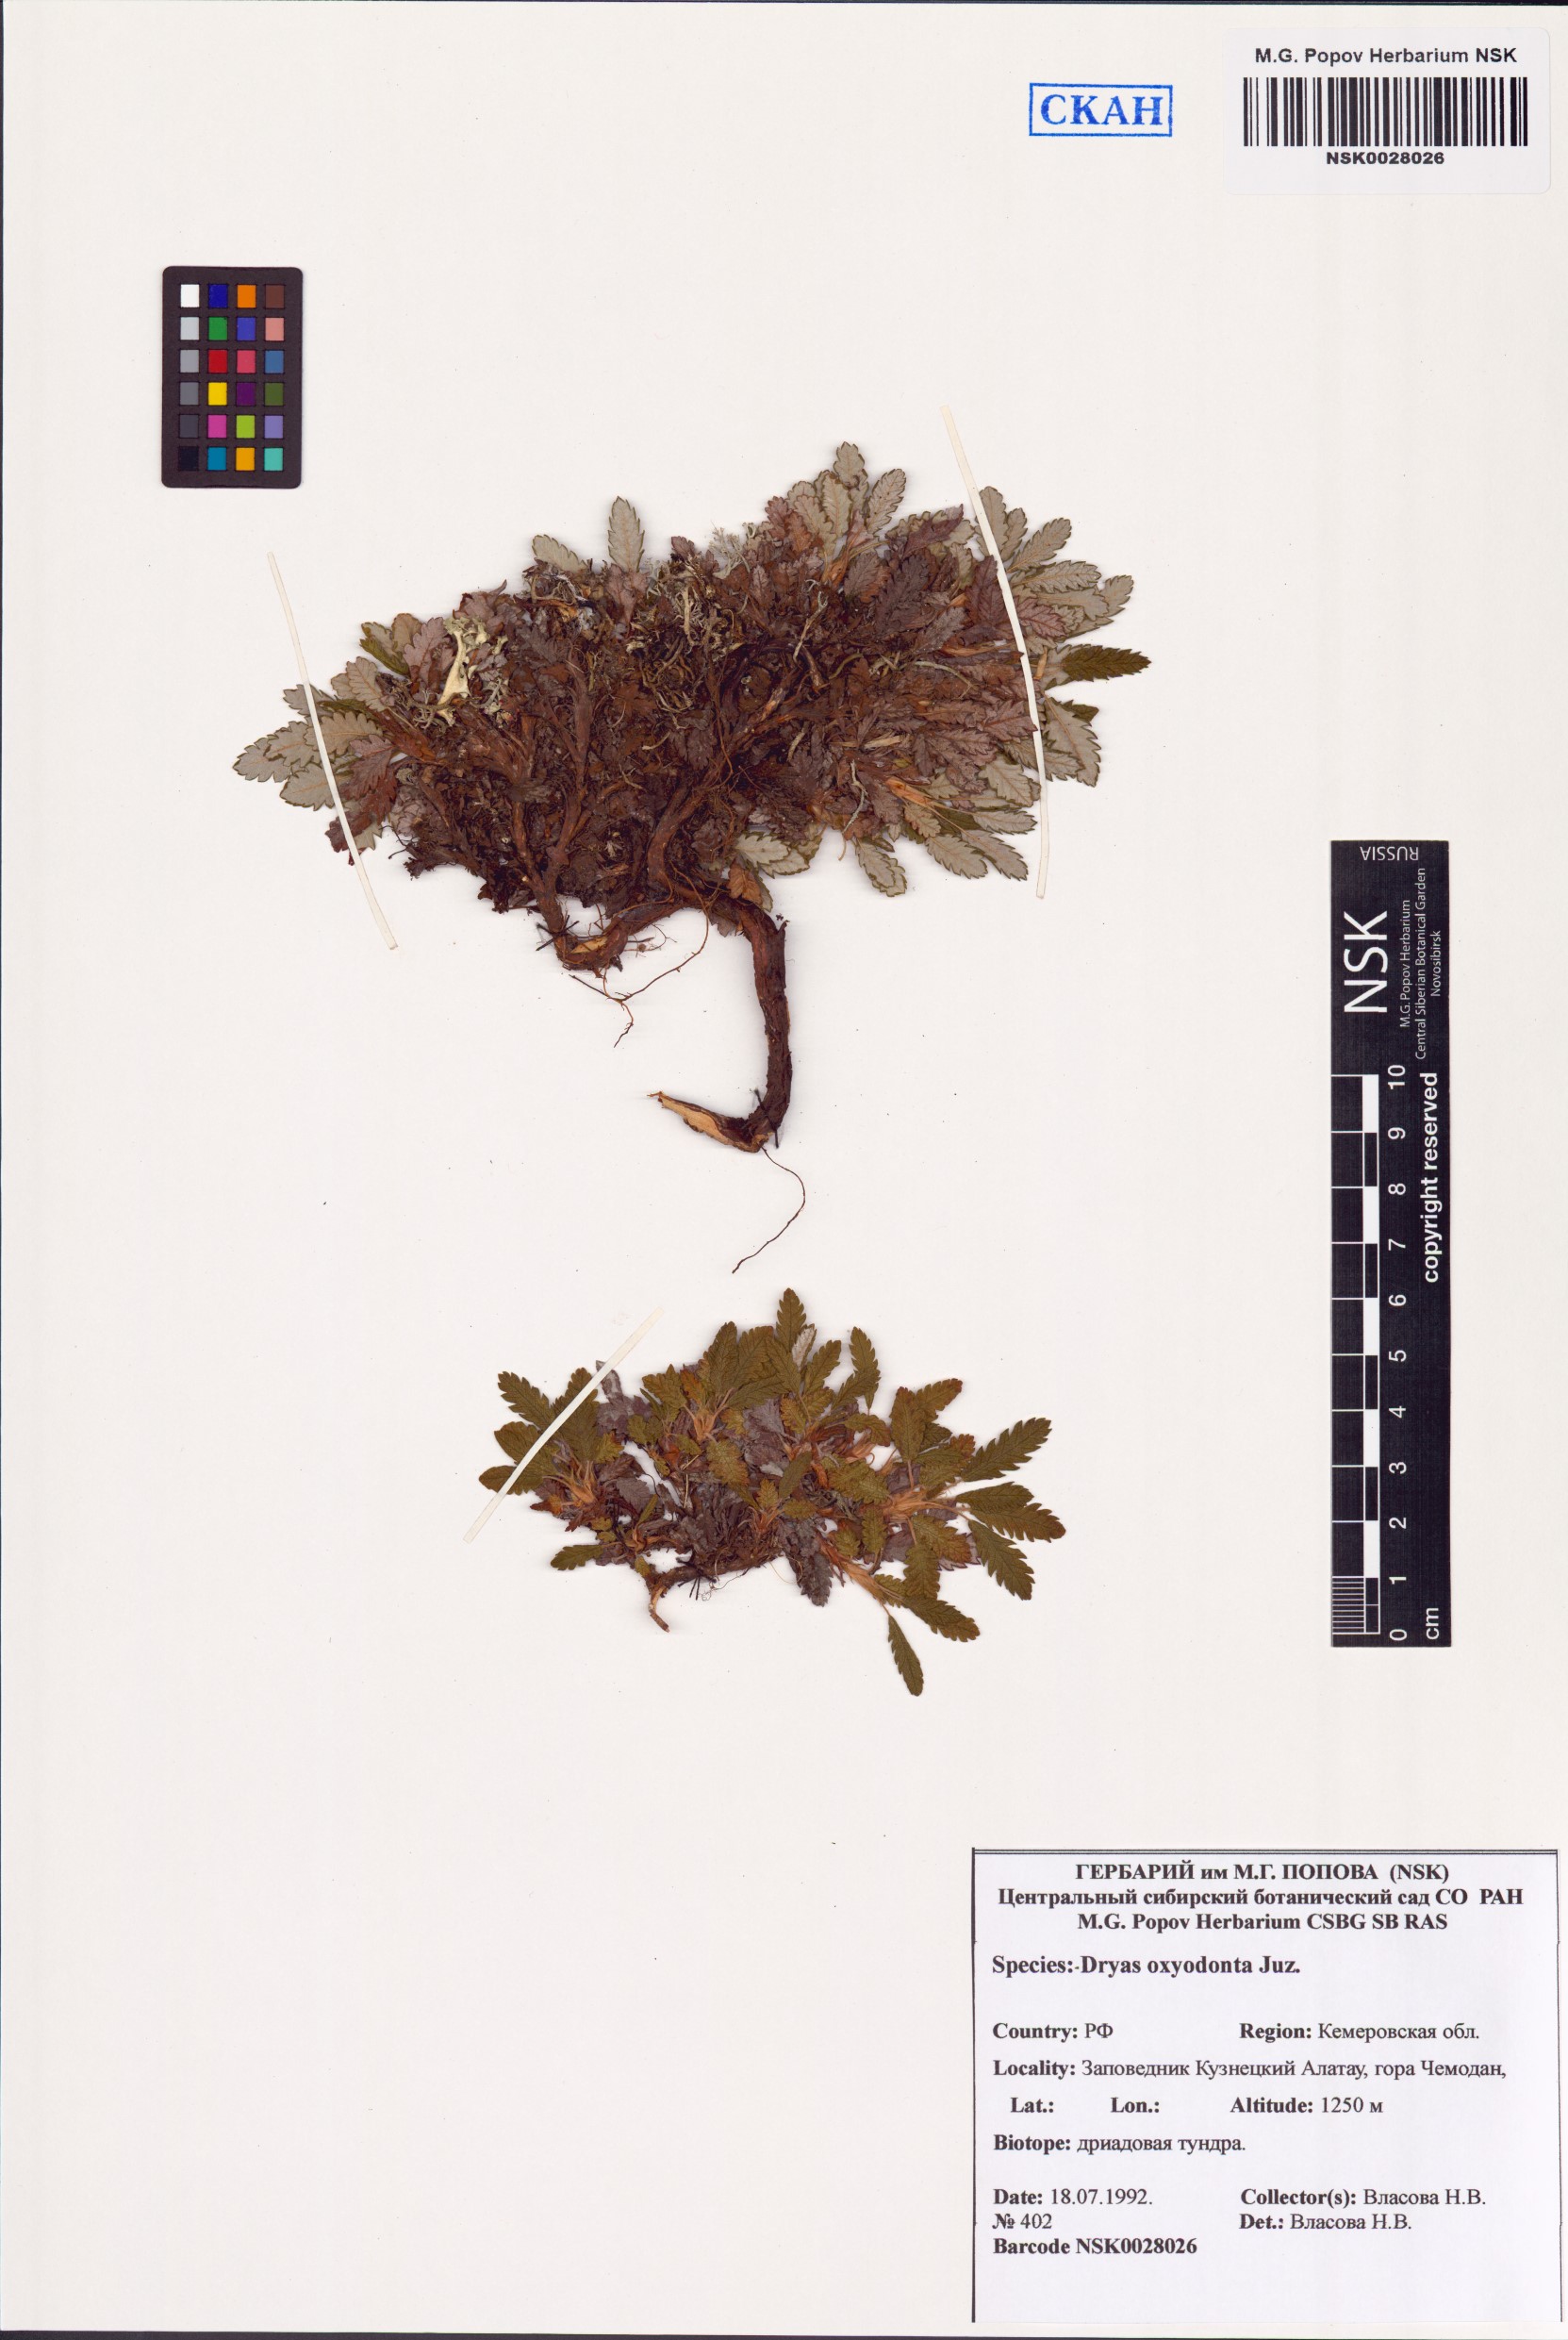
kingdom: Plantae
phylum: Tracheophyta
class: Magnoliopsida
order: Rosales
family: Rosaceae
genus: Dryas
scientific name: Dryas octopetala
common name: Eight-petal mountain-avens
